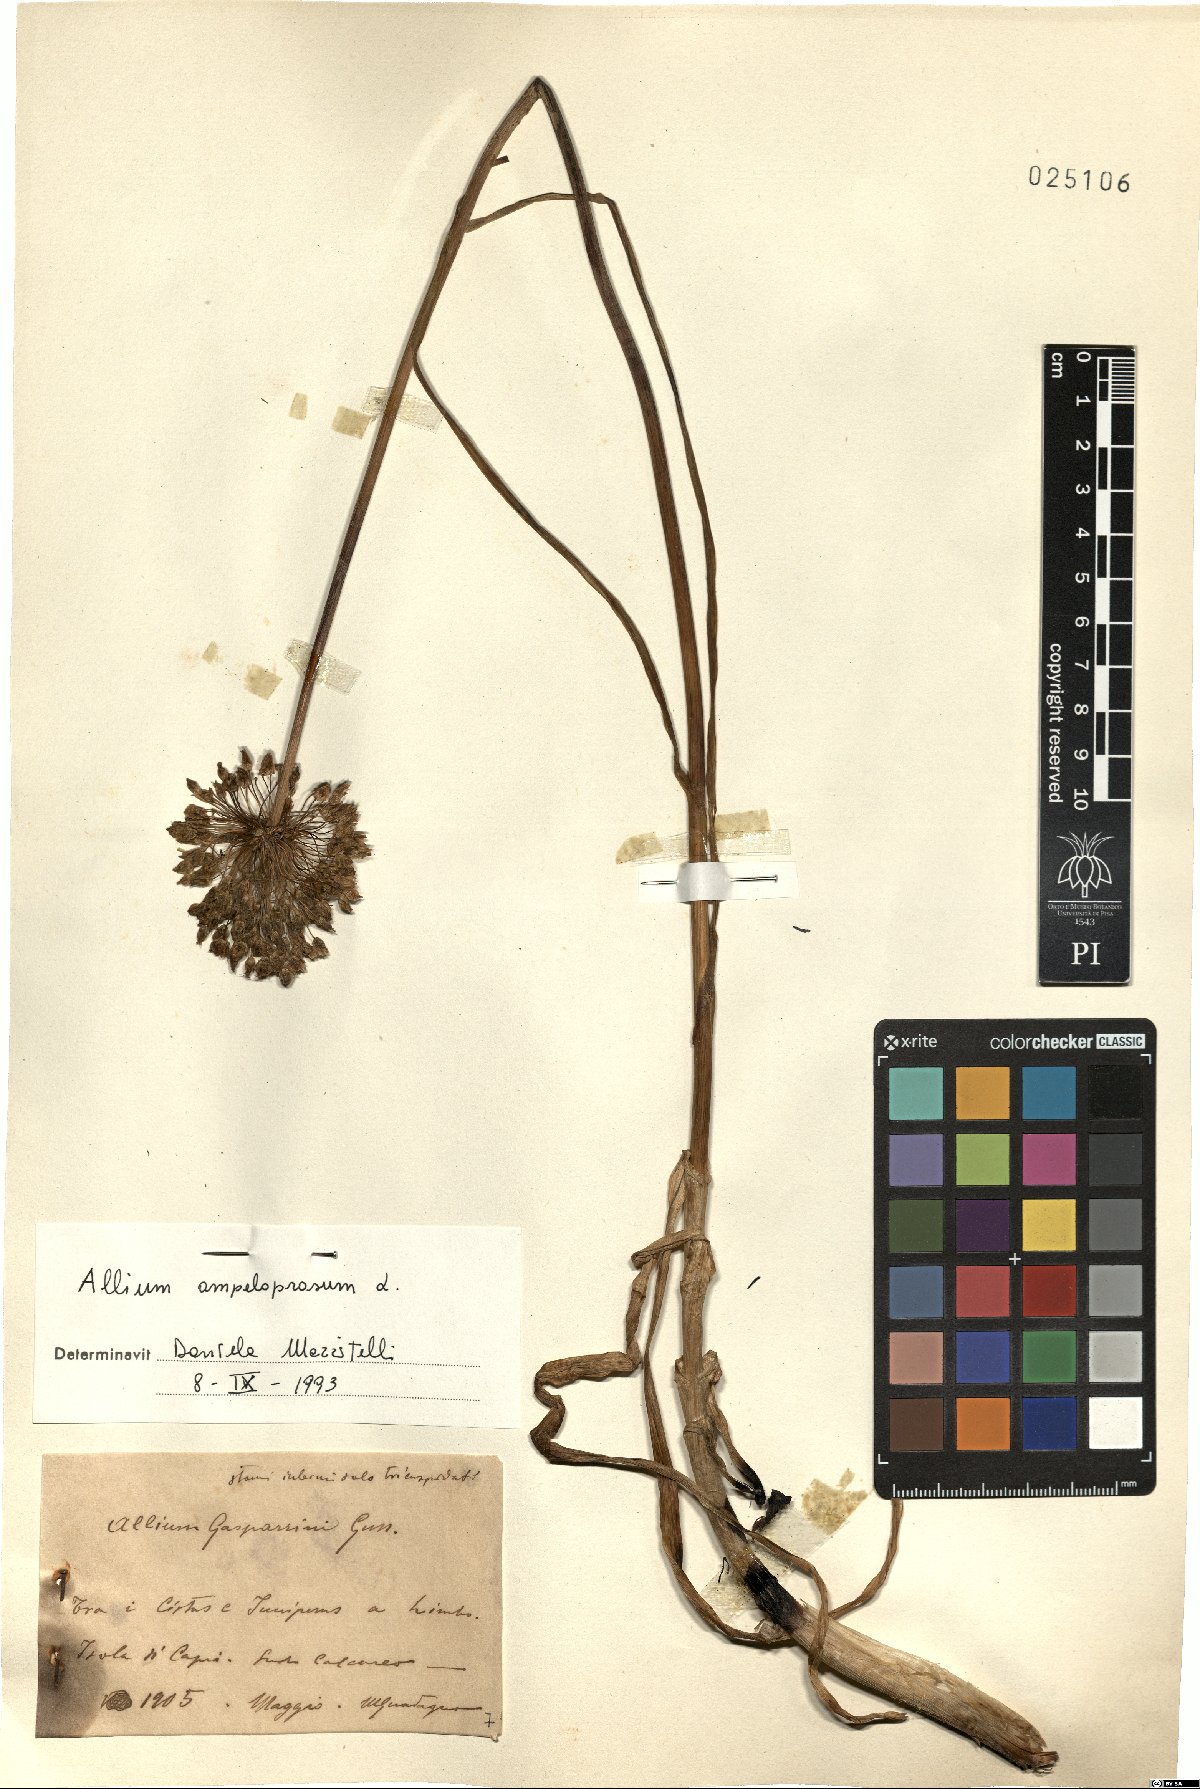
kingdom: Plantae
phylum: Tracheophyta
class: Liliopsida
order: Asparagales
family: Amaryllidaceae
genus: Allium
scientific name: Allium ampeloprasum
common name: Wild leek
